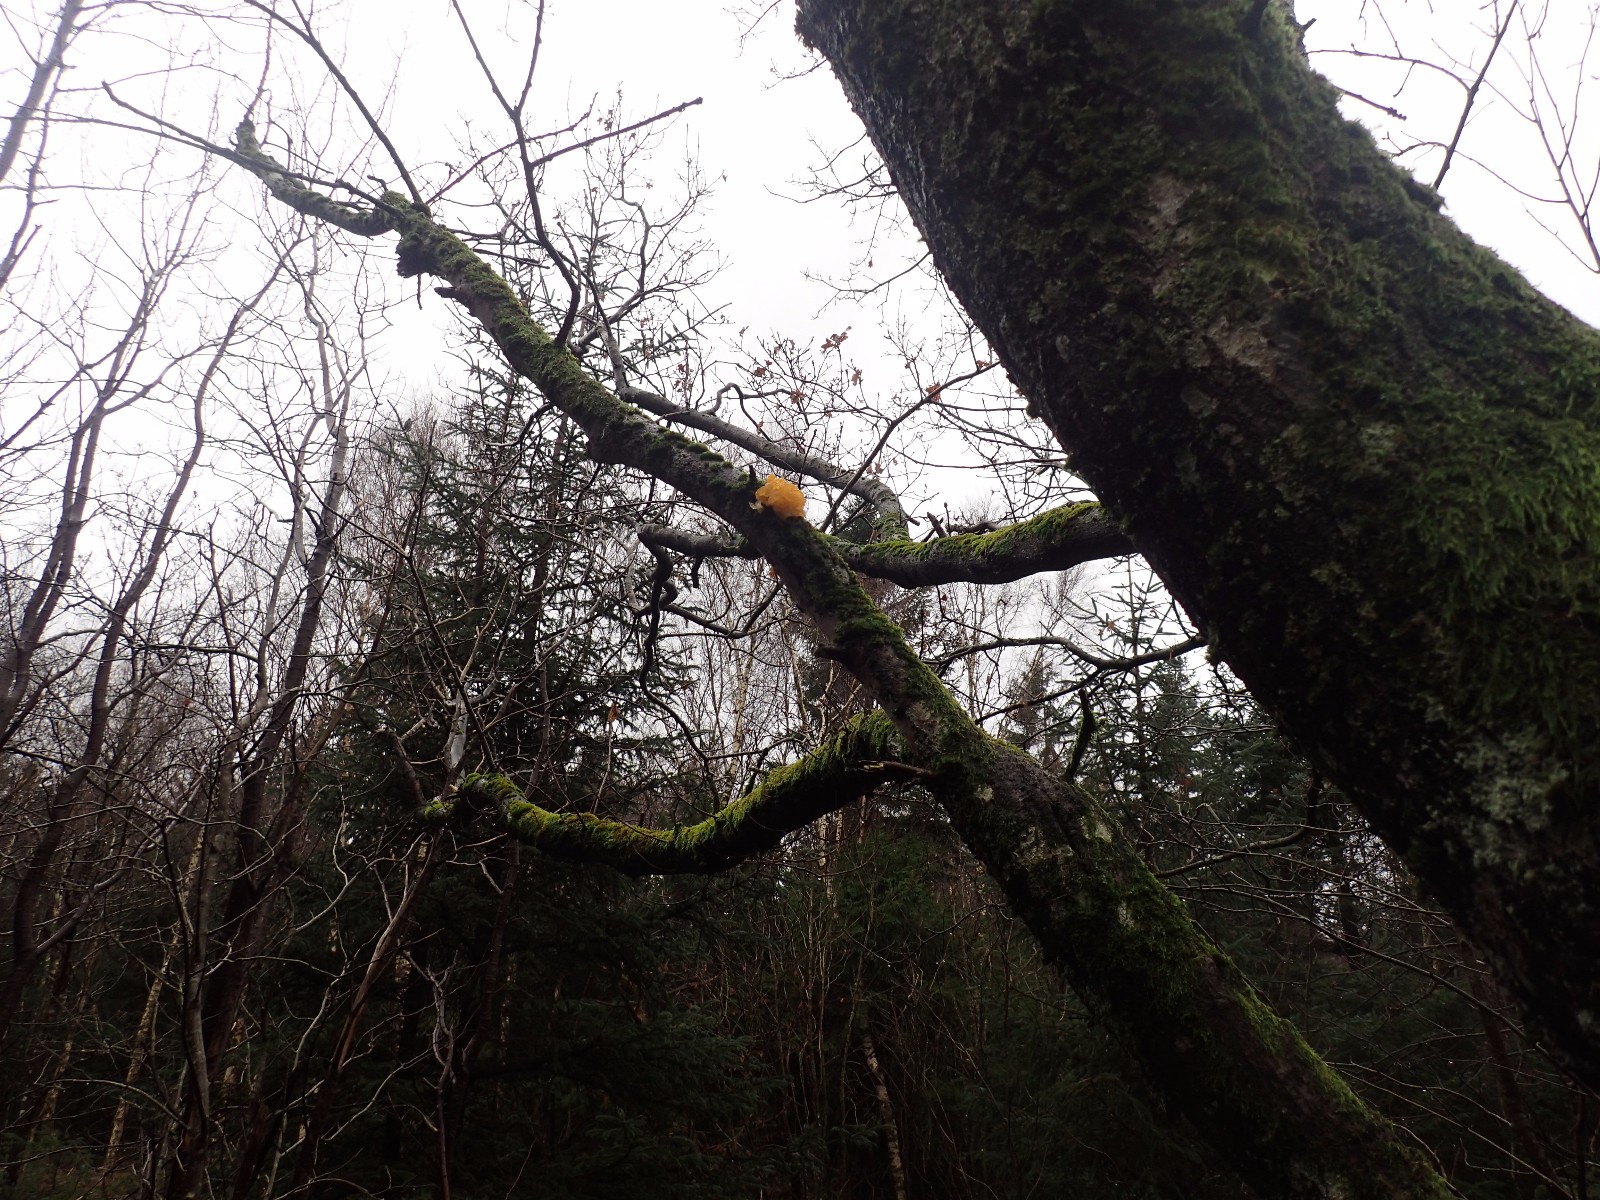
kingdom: Fungi
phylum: Basidiomycota
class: Tremellomycetes
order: Tremellales
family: Tremellaceae
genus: Tremella
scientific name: Tremella mesenterica
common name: gul bævresvamp
